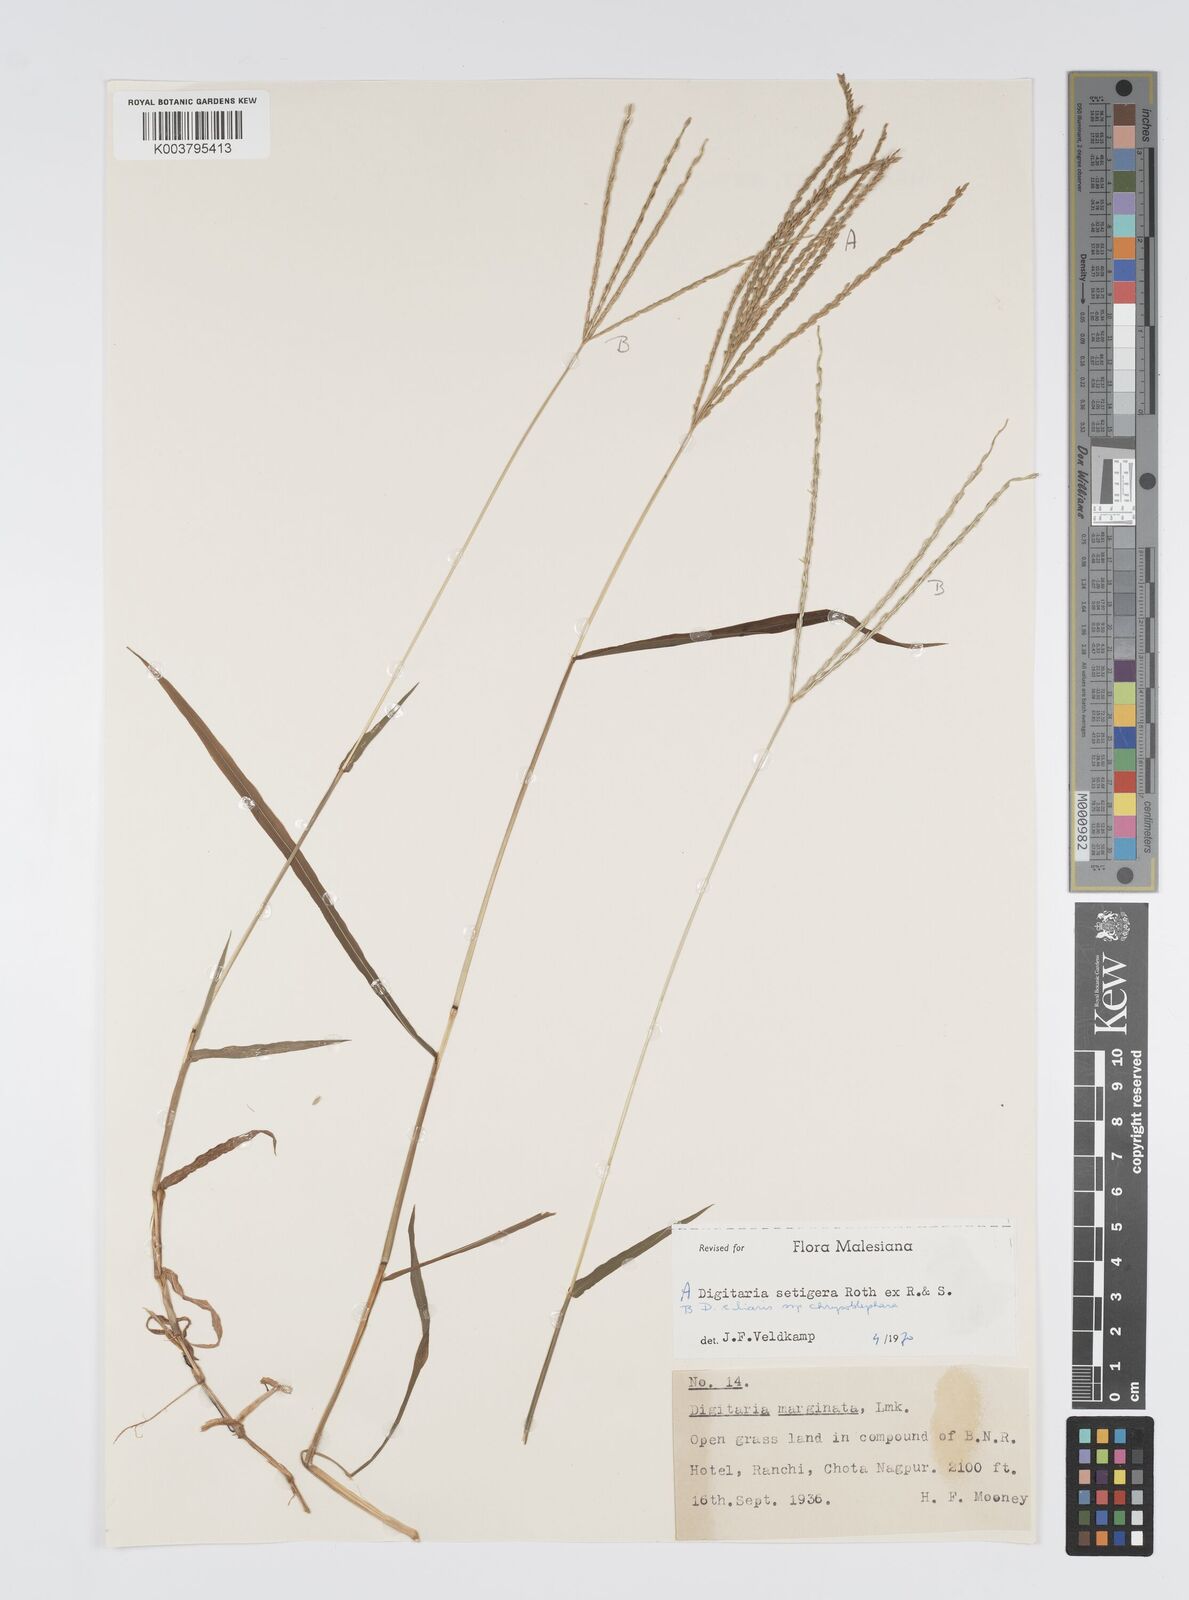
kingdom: Plantae
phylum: Tracheophyta
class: Liliopsida
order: Poales
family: Poaceae
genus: Digitaria
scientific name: Digitaria ciliaris
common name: Tropical finger-grass
